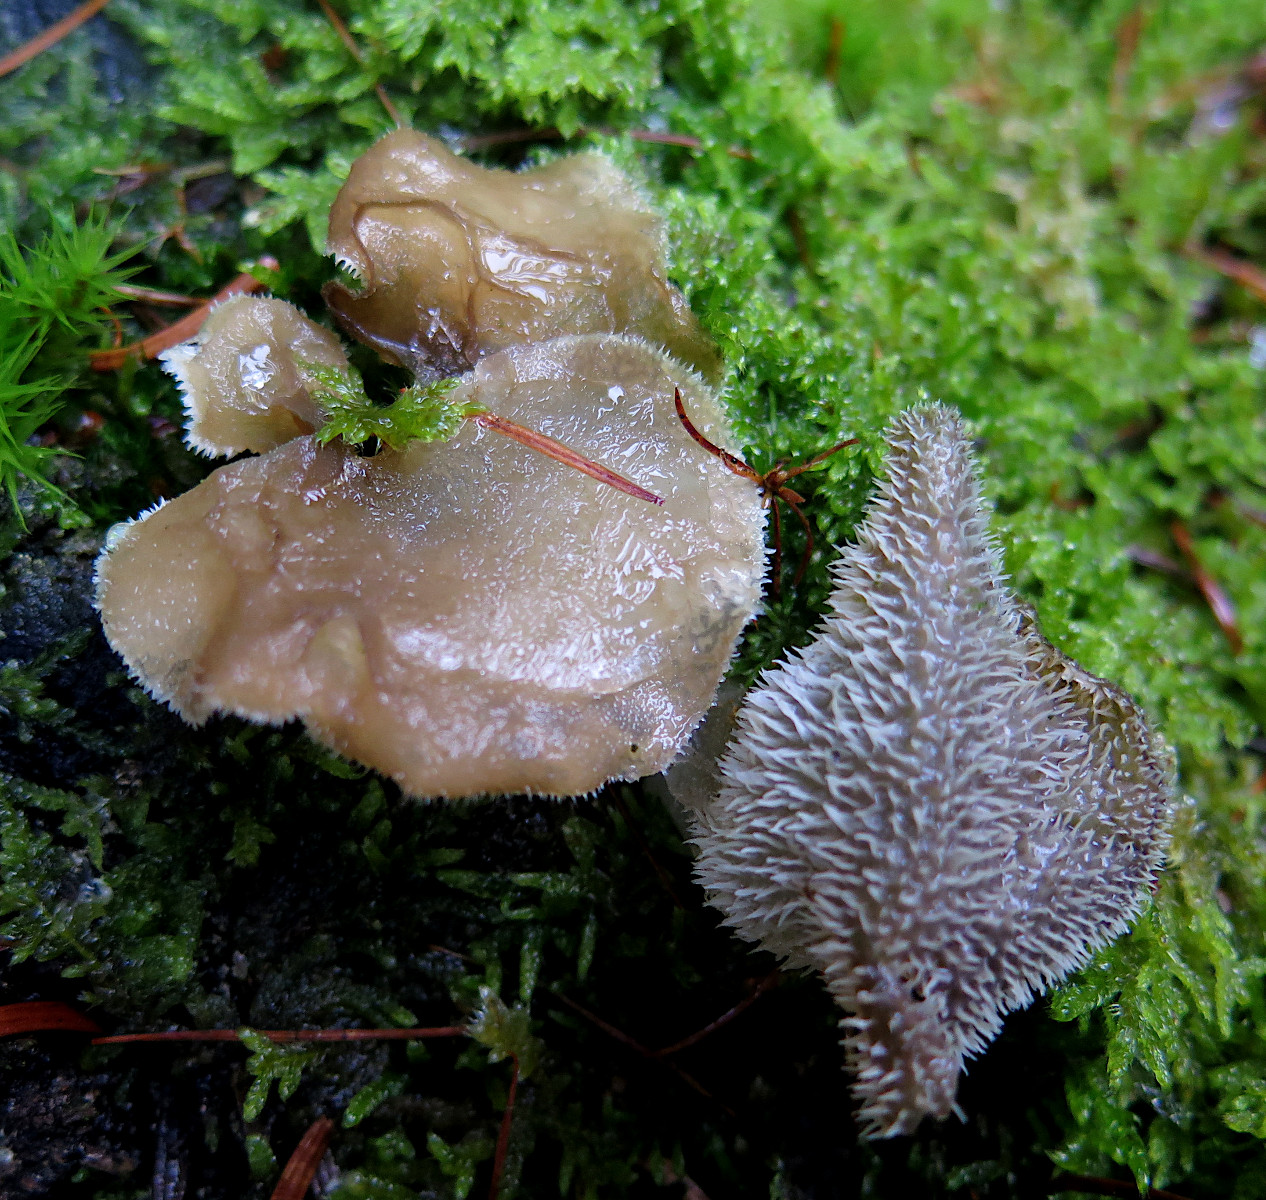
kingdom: Fungi
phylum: Basidiomycota
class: Agaricomycetes
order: Auriculariales
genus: Pseudohydnum
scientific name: Pseudohydnum gelatinosum
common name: bævretand
